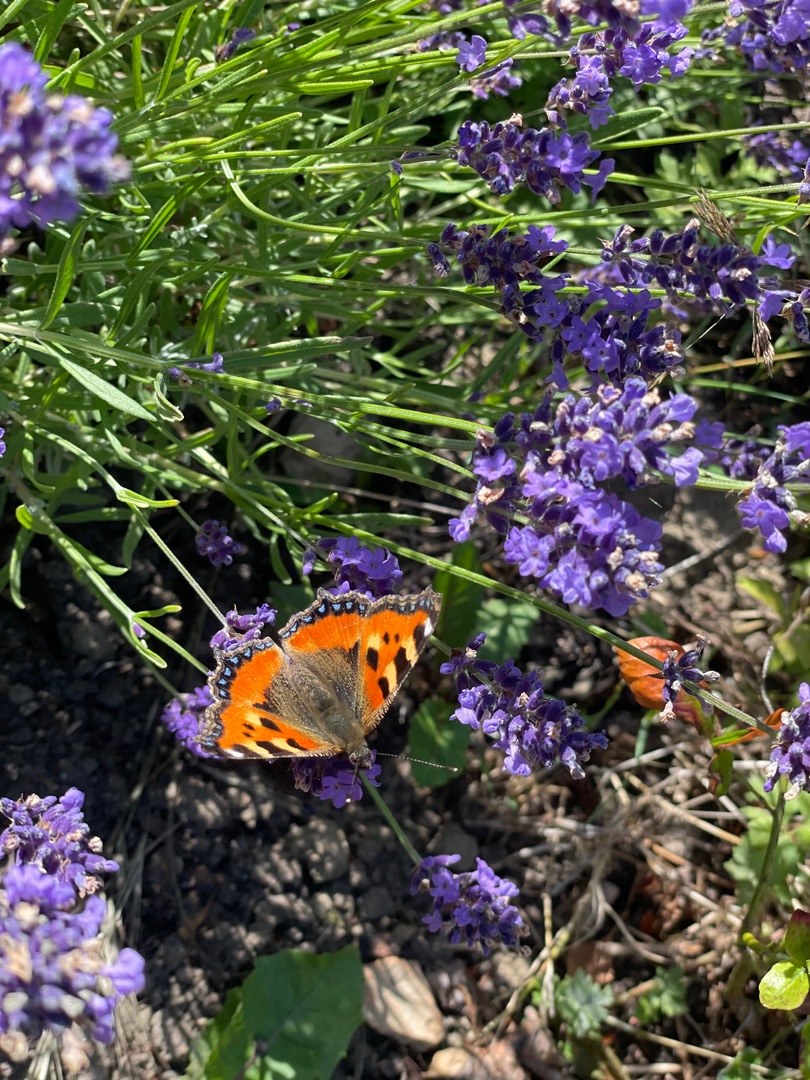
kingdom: Animalia
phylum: Arthropoda
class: Insecta
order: Lepidoptera
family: Nymphalidae
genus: Aglais
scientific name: Aglais urticae
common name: Nældens takvinge
